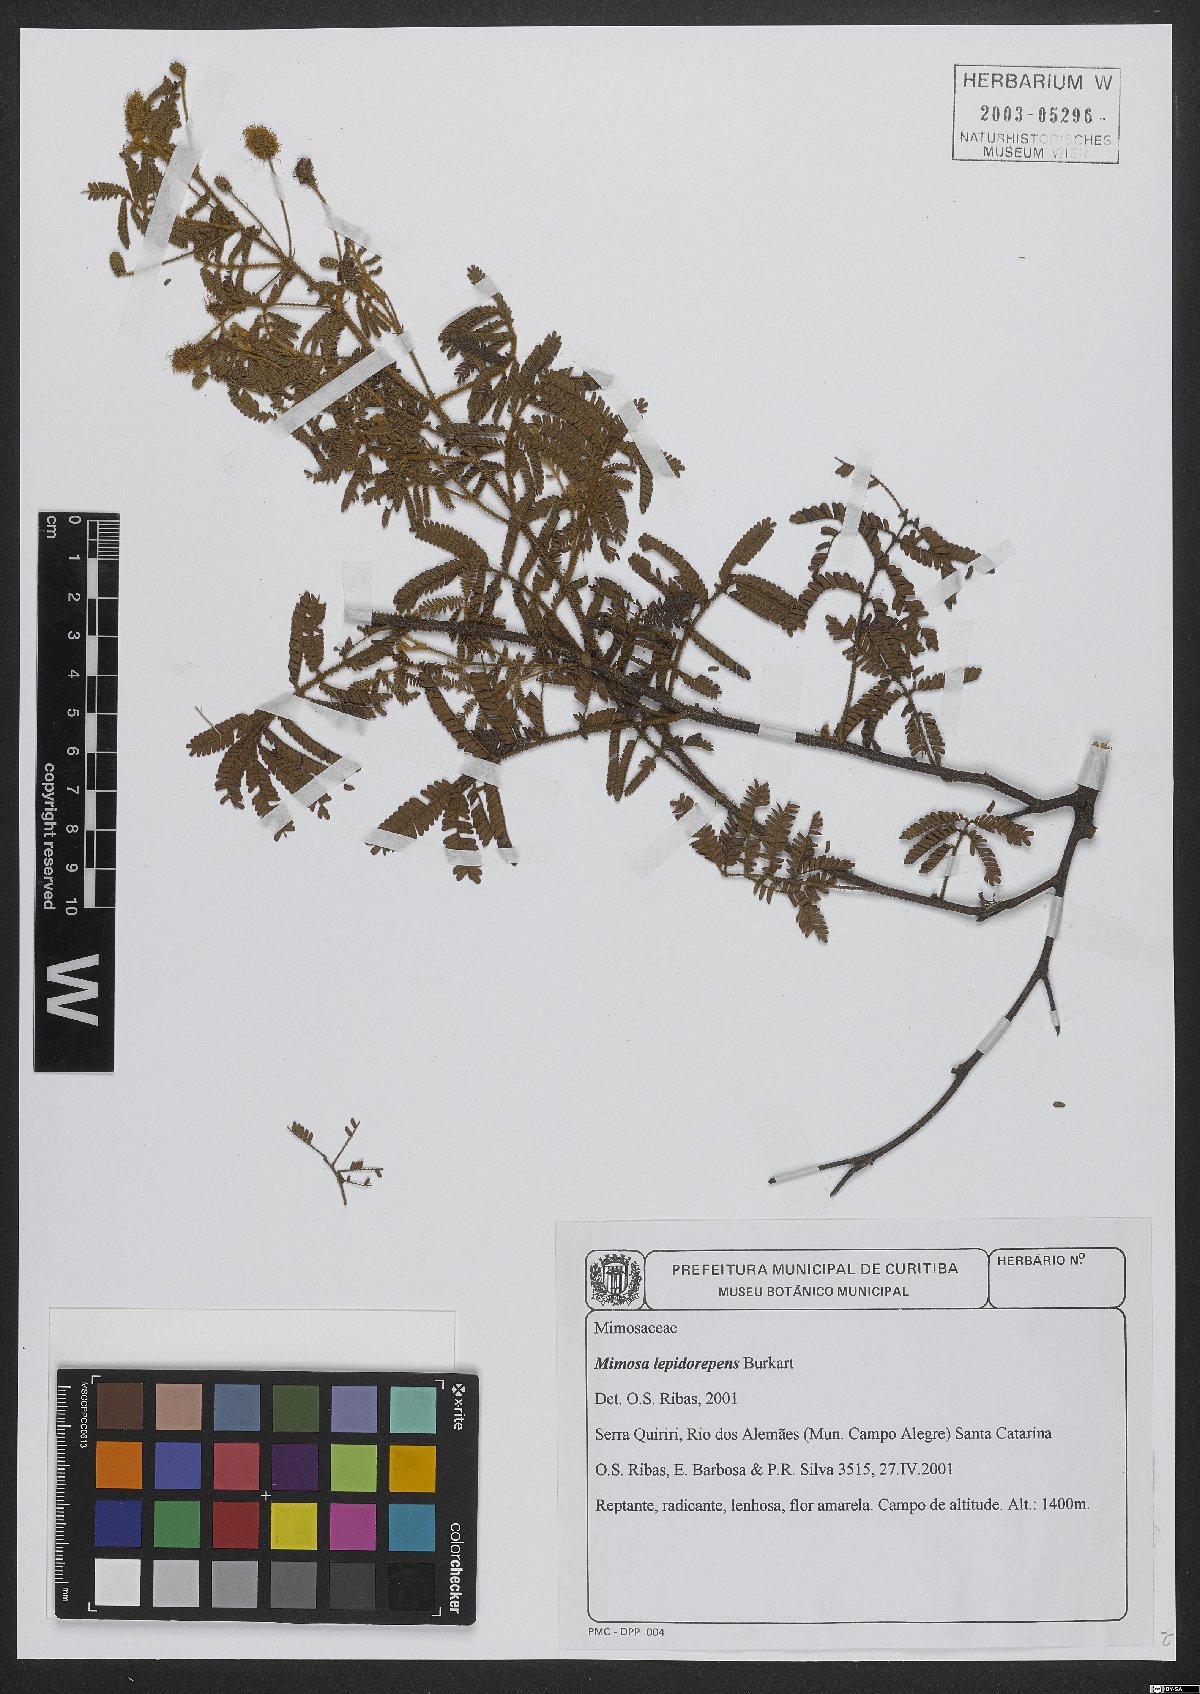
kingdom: Plantae
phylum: Tracheophyta
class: Magnoliopsida
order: Fabales
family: Fabaceae
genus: Mimosa
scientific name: Mimosa lepidorepens
